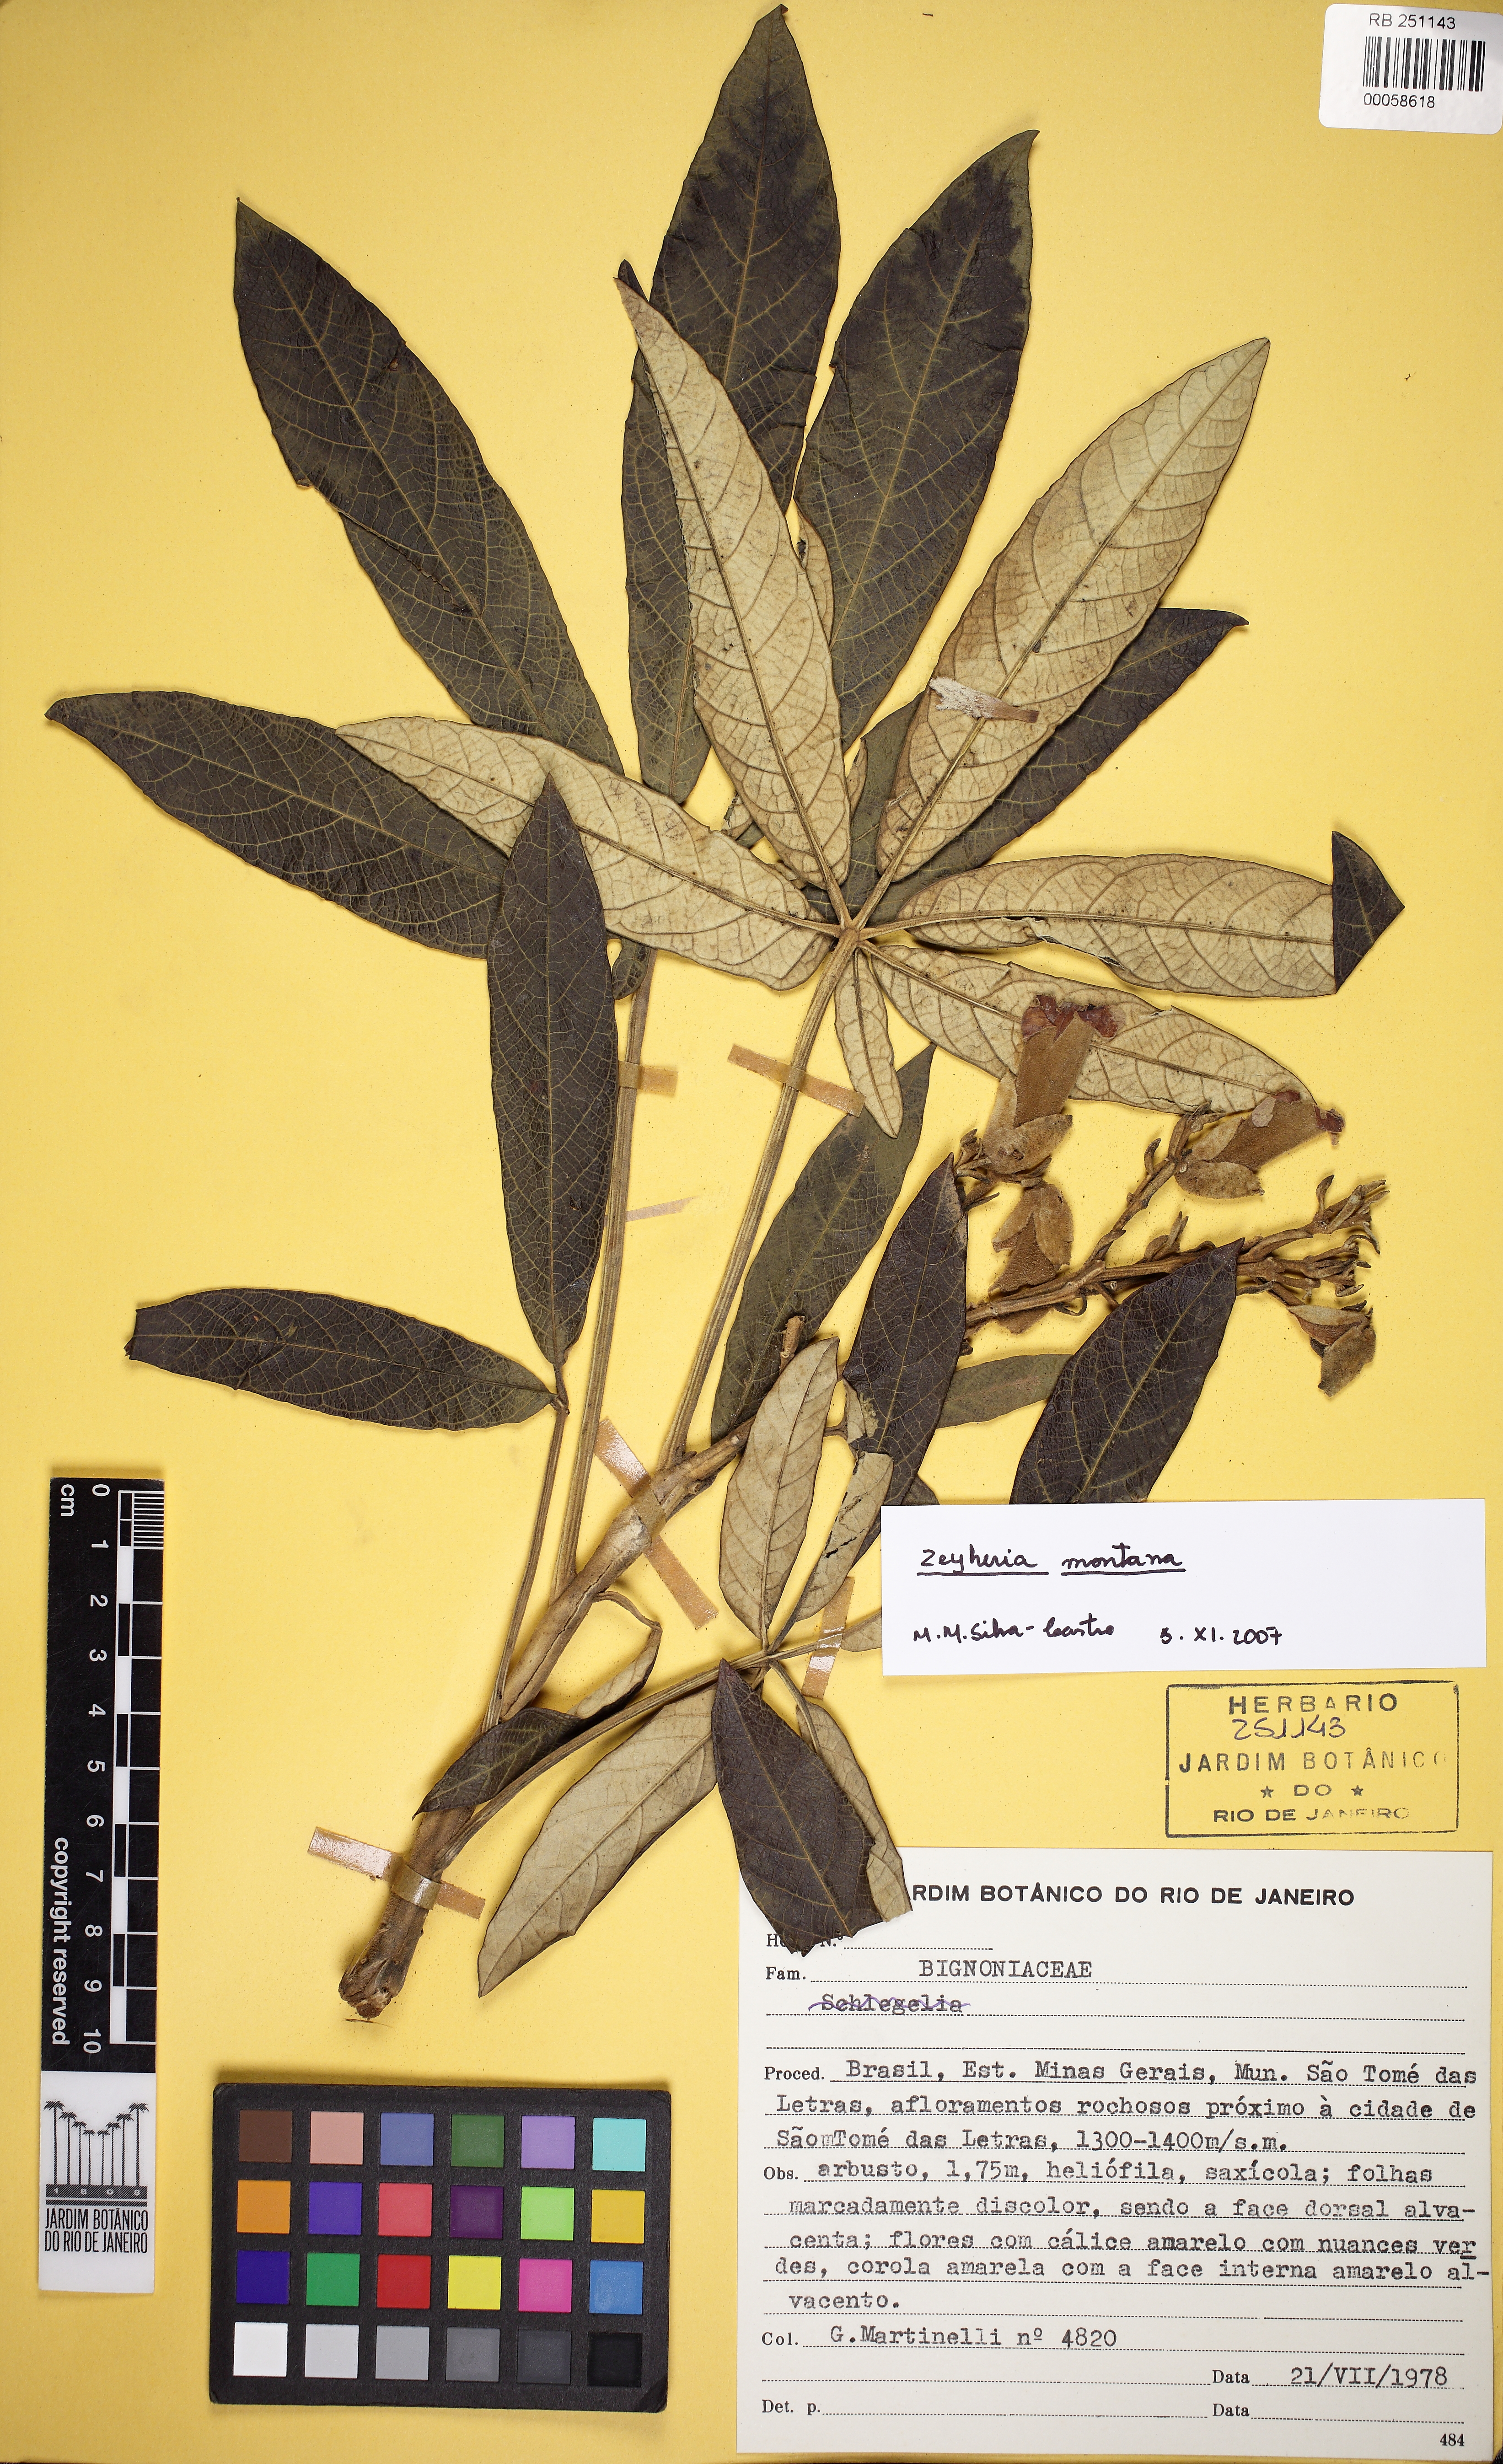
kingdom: Plantae
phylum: Tracheophyta
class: Magnoliopsida
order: Lamiales
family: Bignoniaceae
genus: Zeyheria
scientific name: Zeyheria montana
